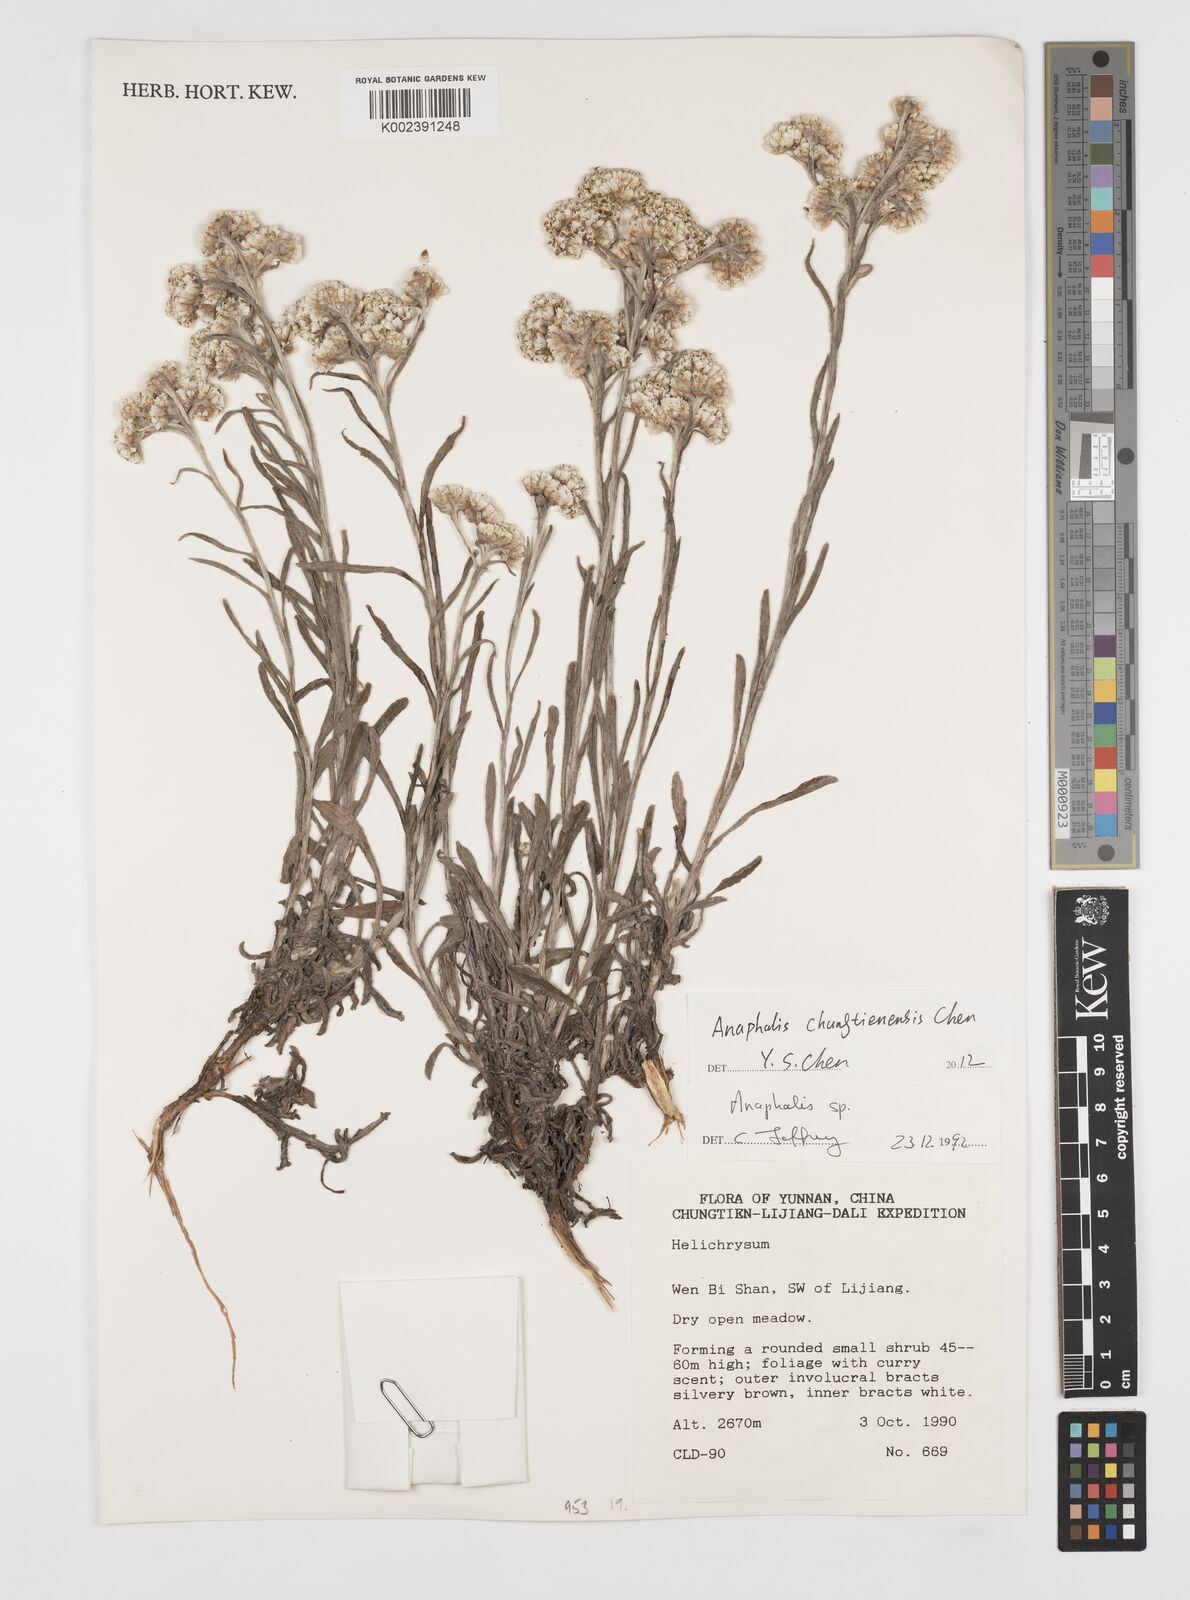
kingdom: Plantae
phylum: Tracheophyta
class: Magnoliopsida
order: Asterales
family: Asteraceae
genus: Anaphalis
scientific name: Anaphalis chungtienensis
